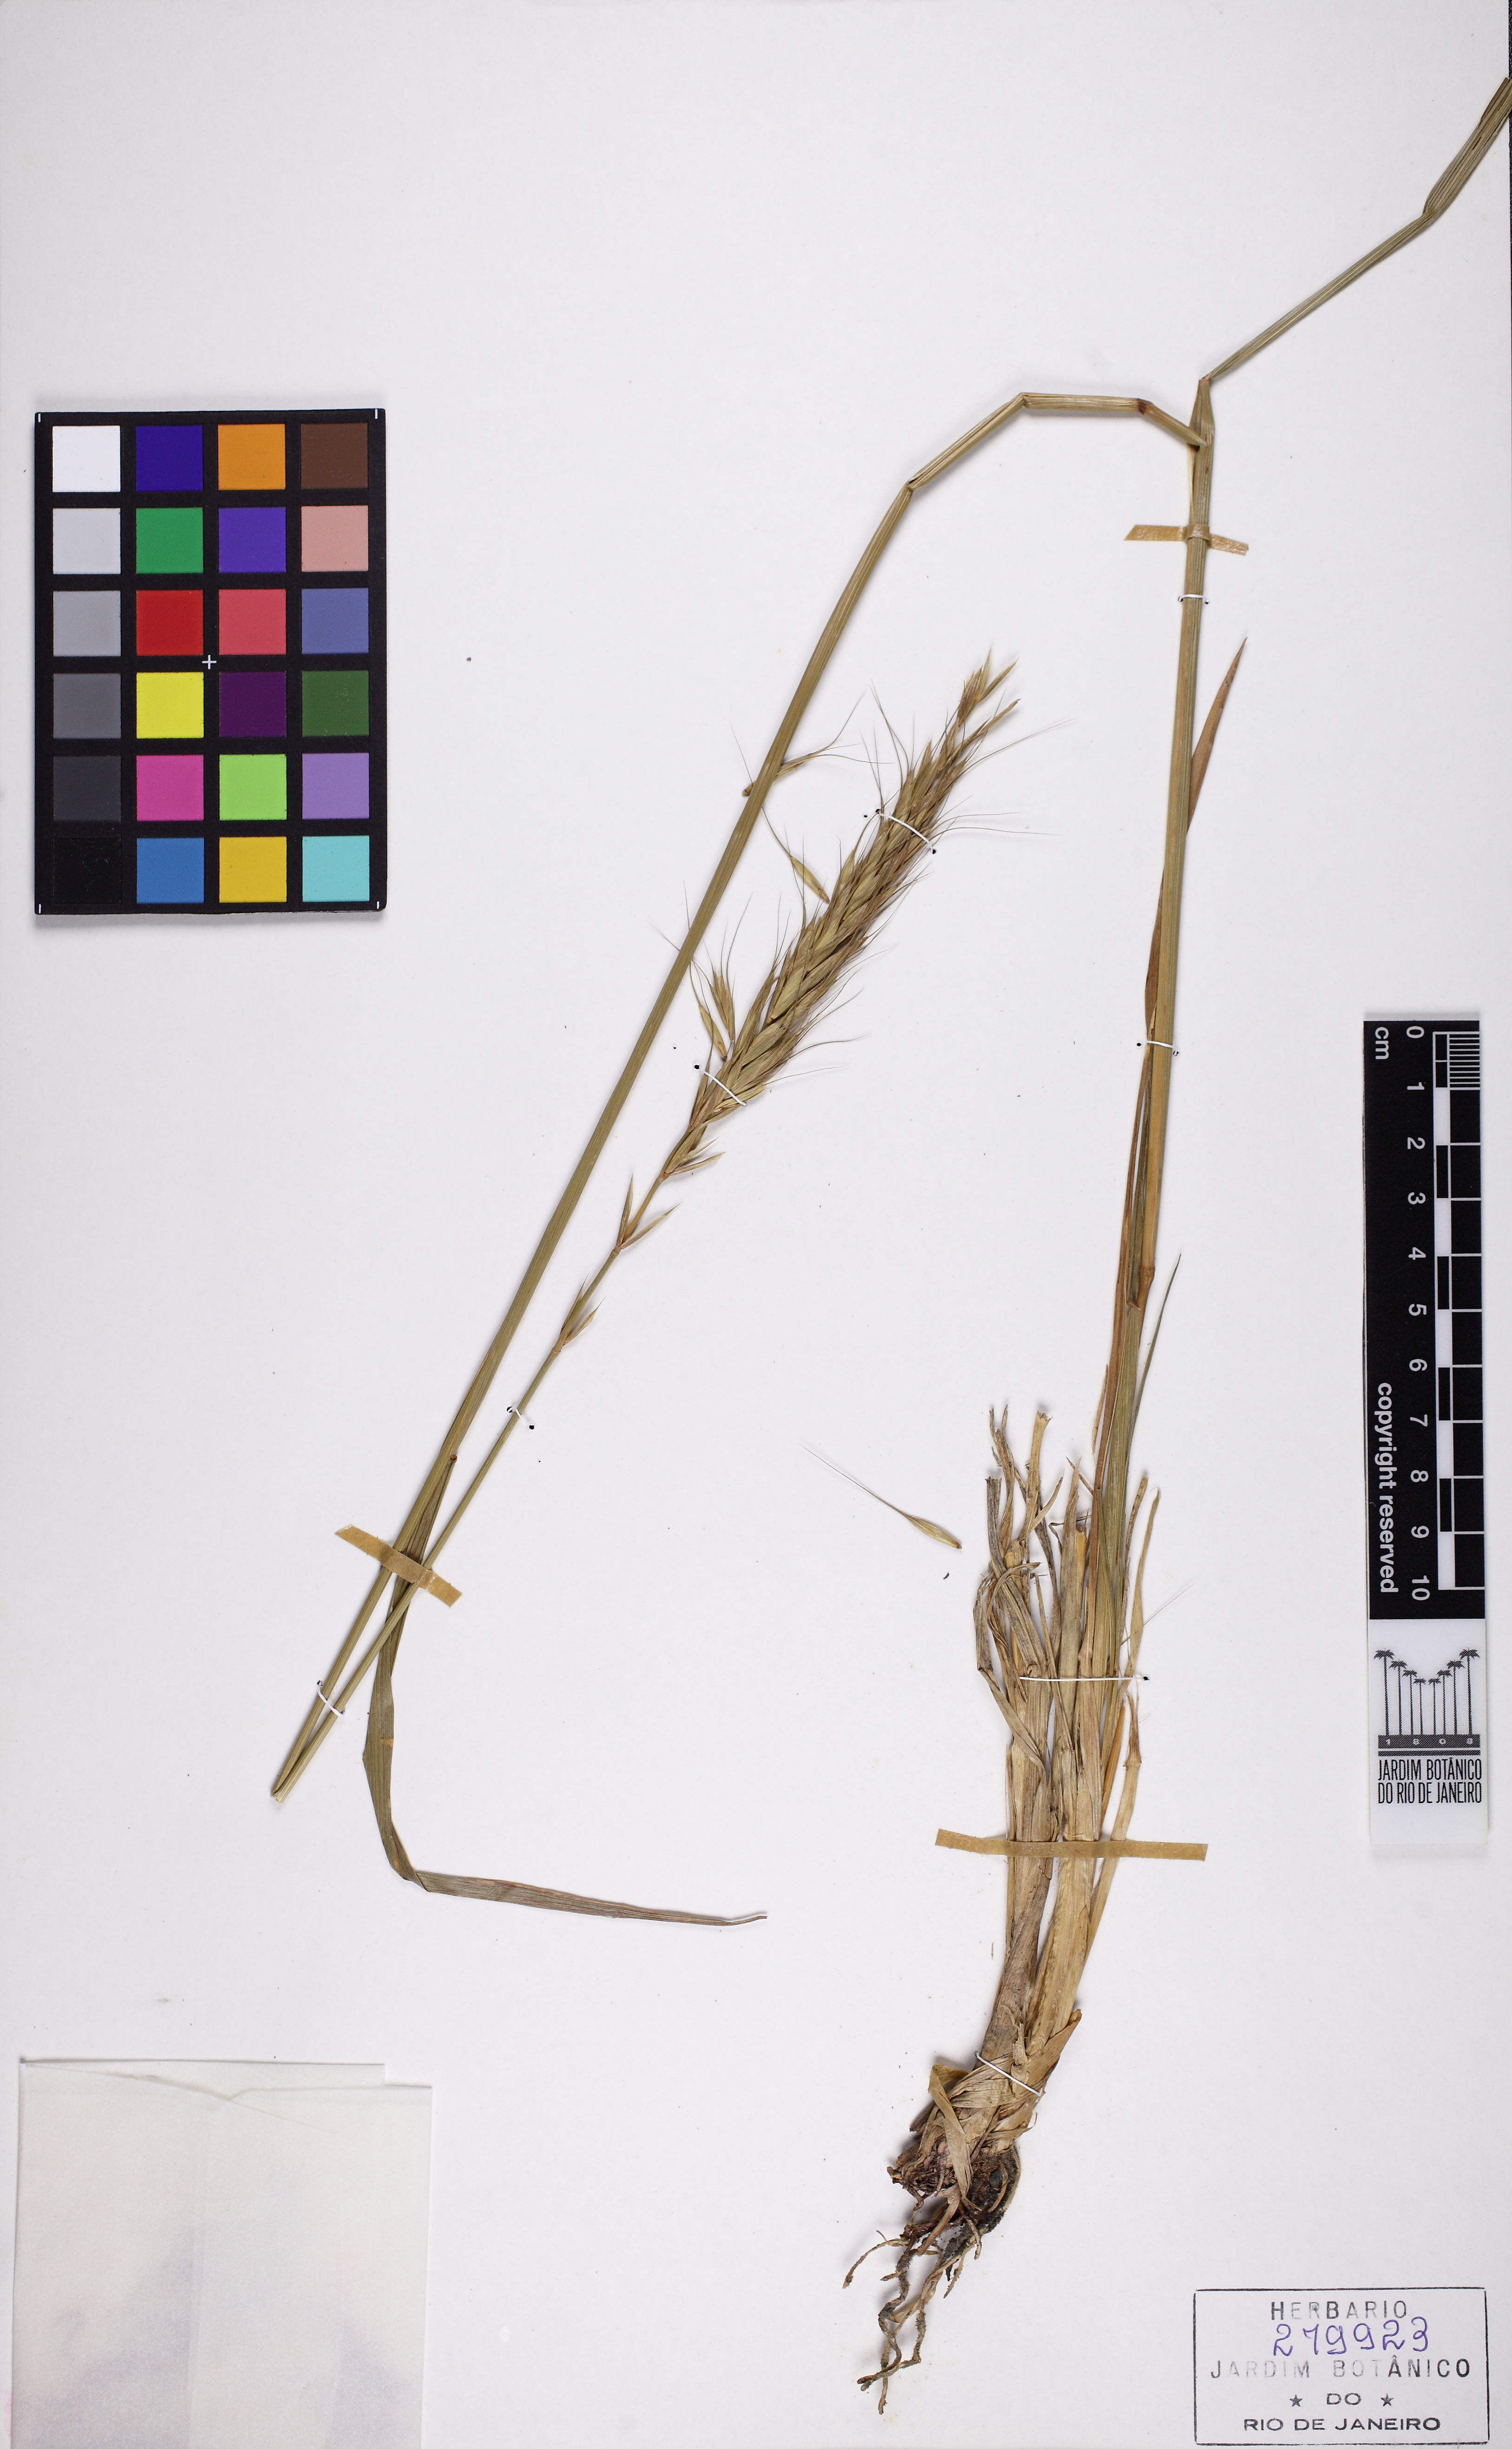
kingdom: Plantae
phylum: Tracheophyta
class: Liliopsida
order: Poales
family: Poaceae
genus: Elymus
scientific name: Elymus fedtschenkoi
